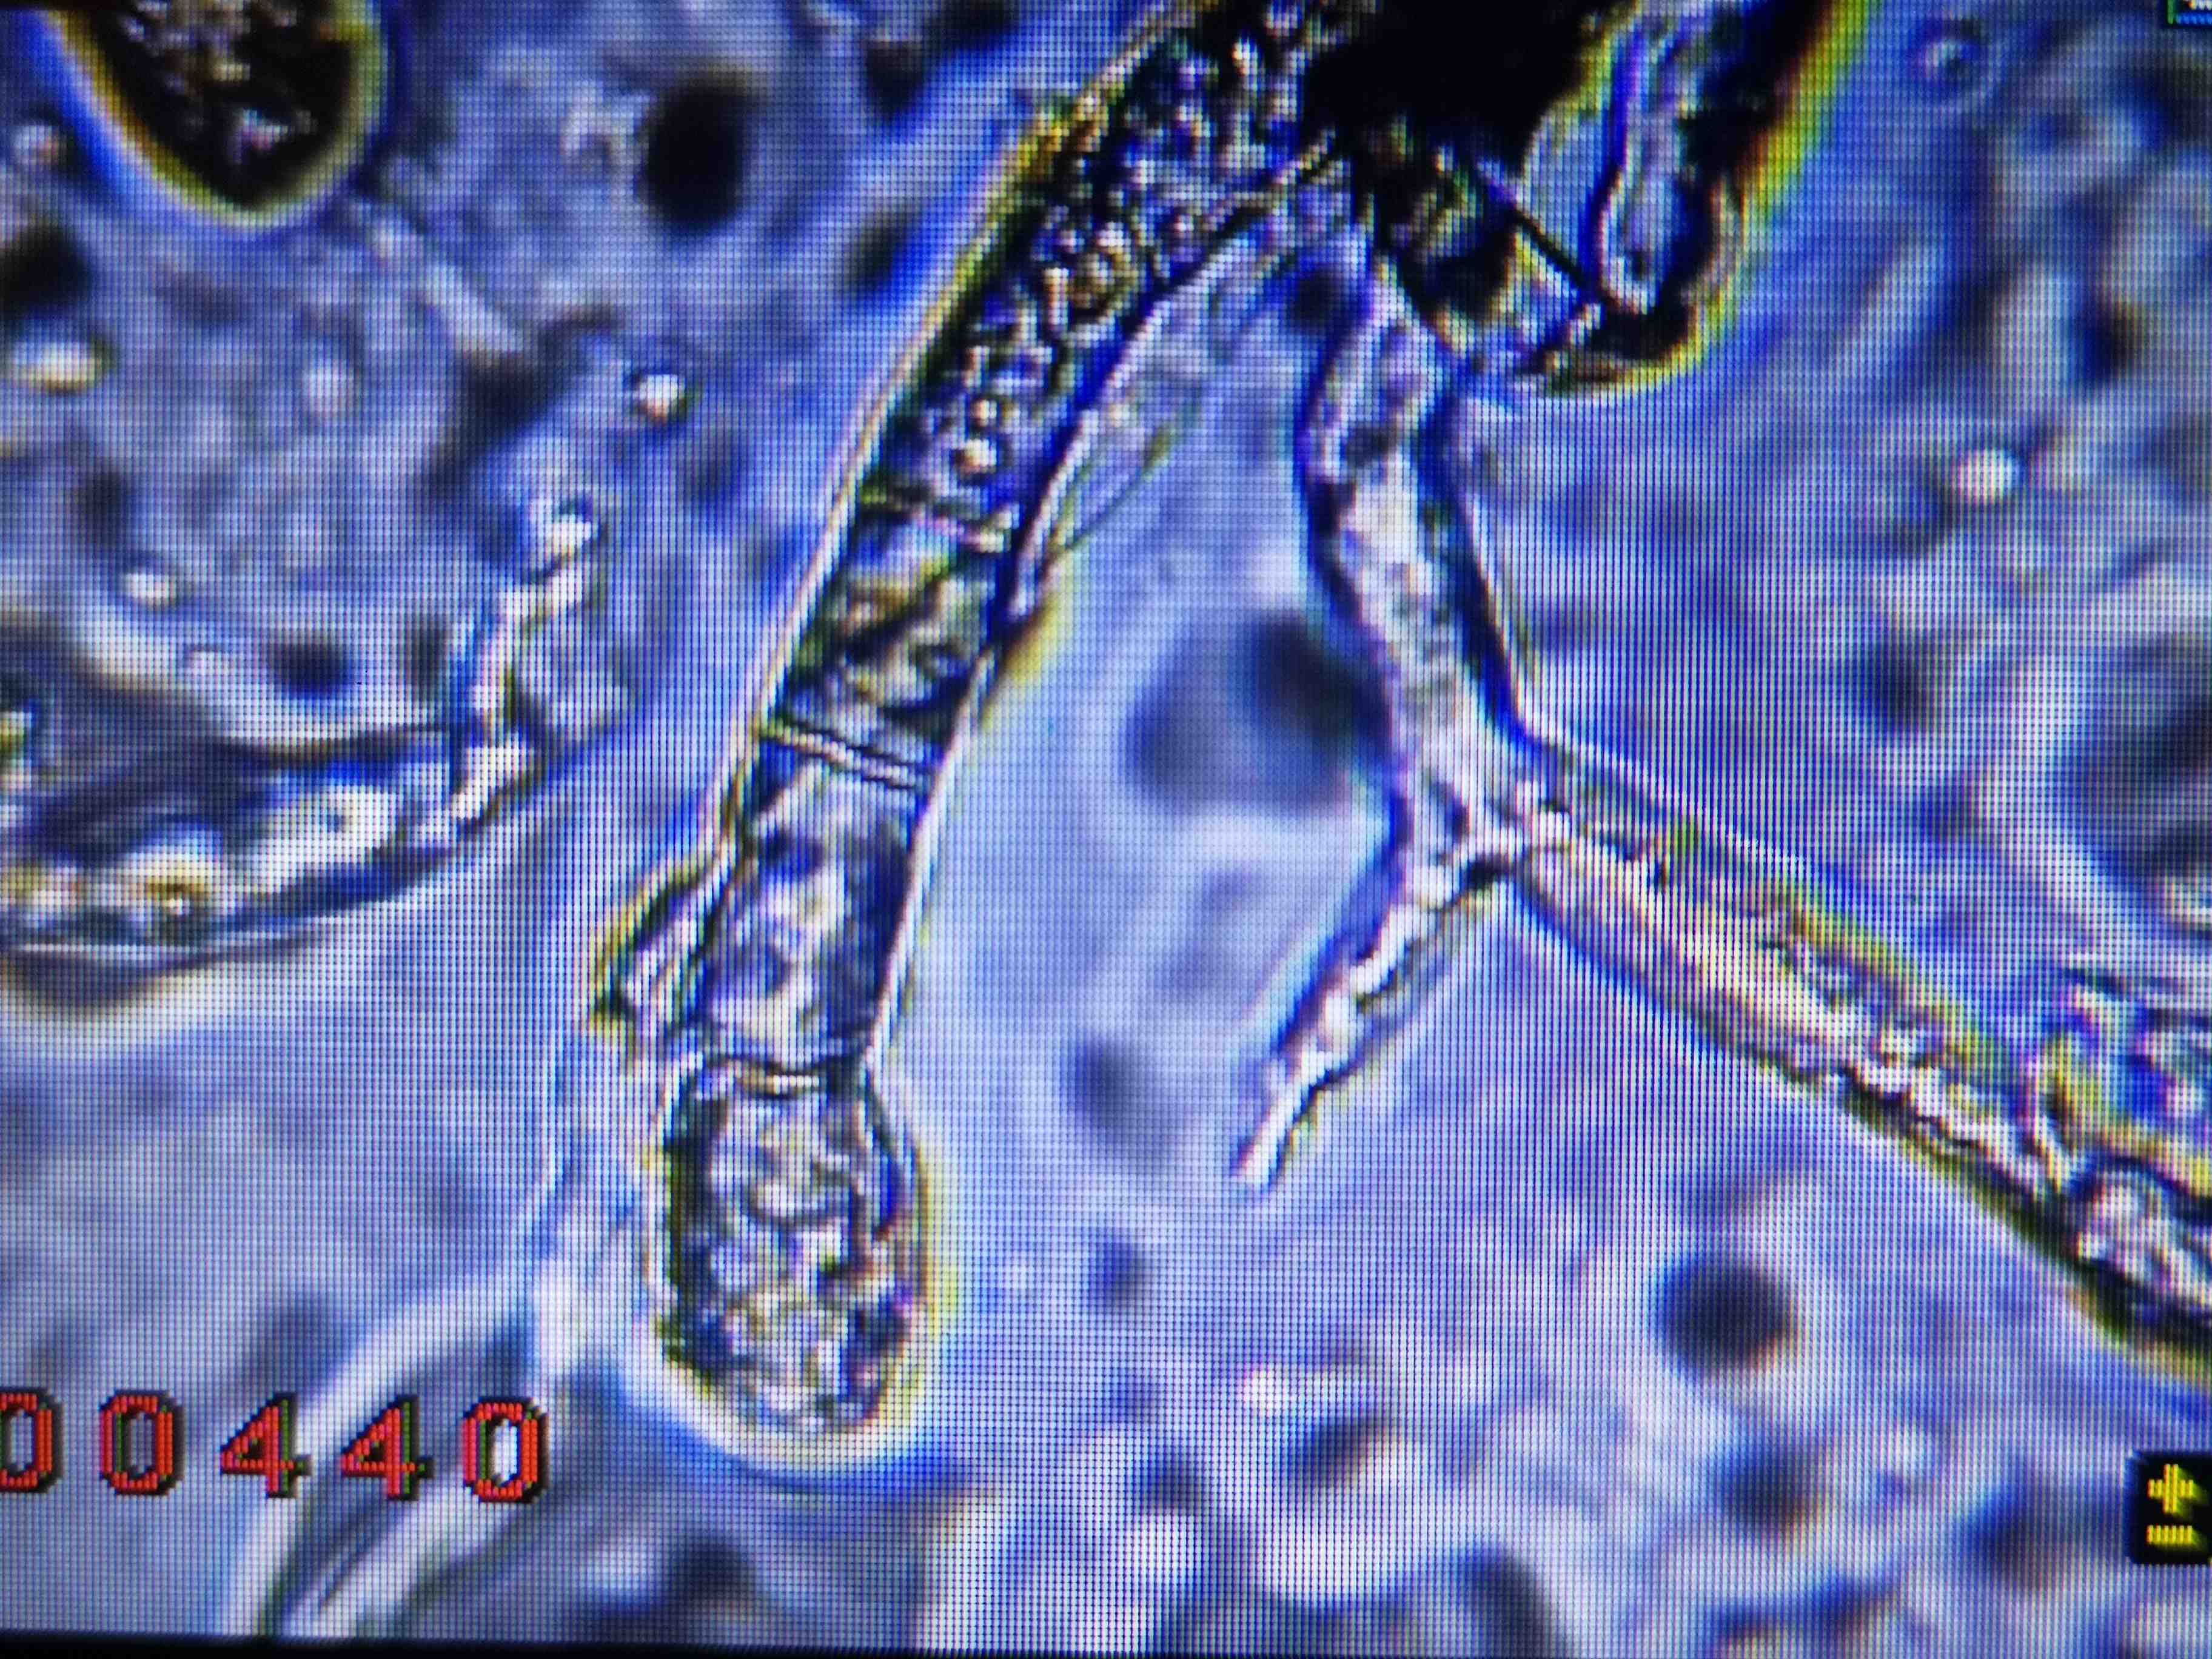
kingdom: Fungi
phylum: Ascomycota
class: Leotiomycetes
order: Helotiales
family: Erysiphaceae
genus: Podosphaera
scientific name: Podosphaera erigerontis-canadensis
